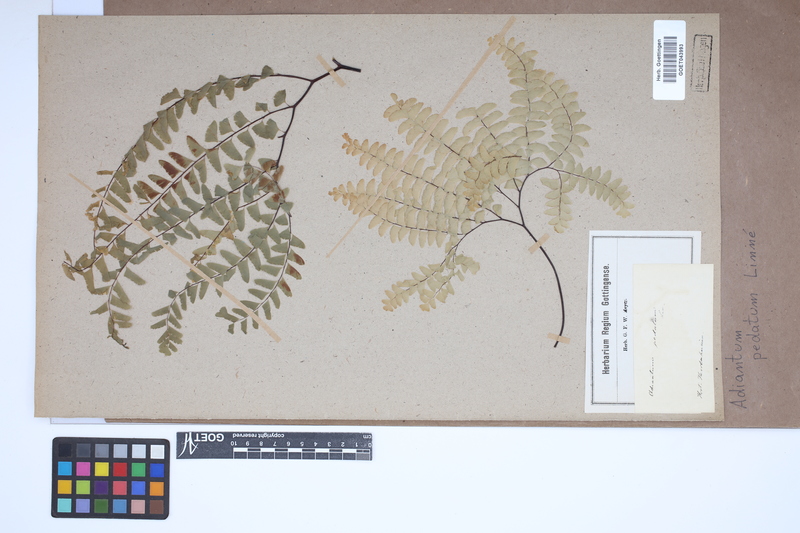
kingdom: Plantae
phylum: Tracheophyta
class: Polypodiopsida
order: Polypodiales
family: Pteridaceae
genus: Adiantum
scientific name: Adiantum pedatum
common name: Five-finger fern
